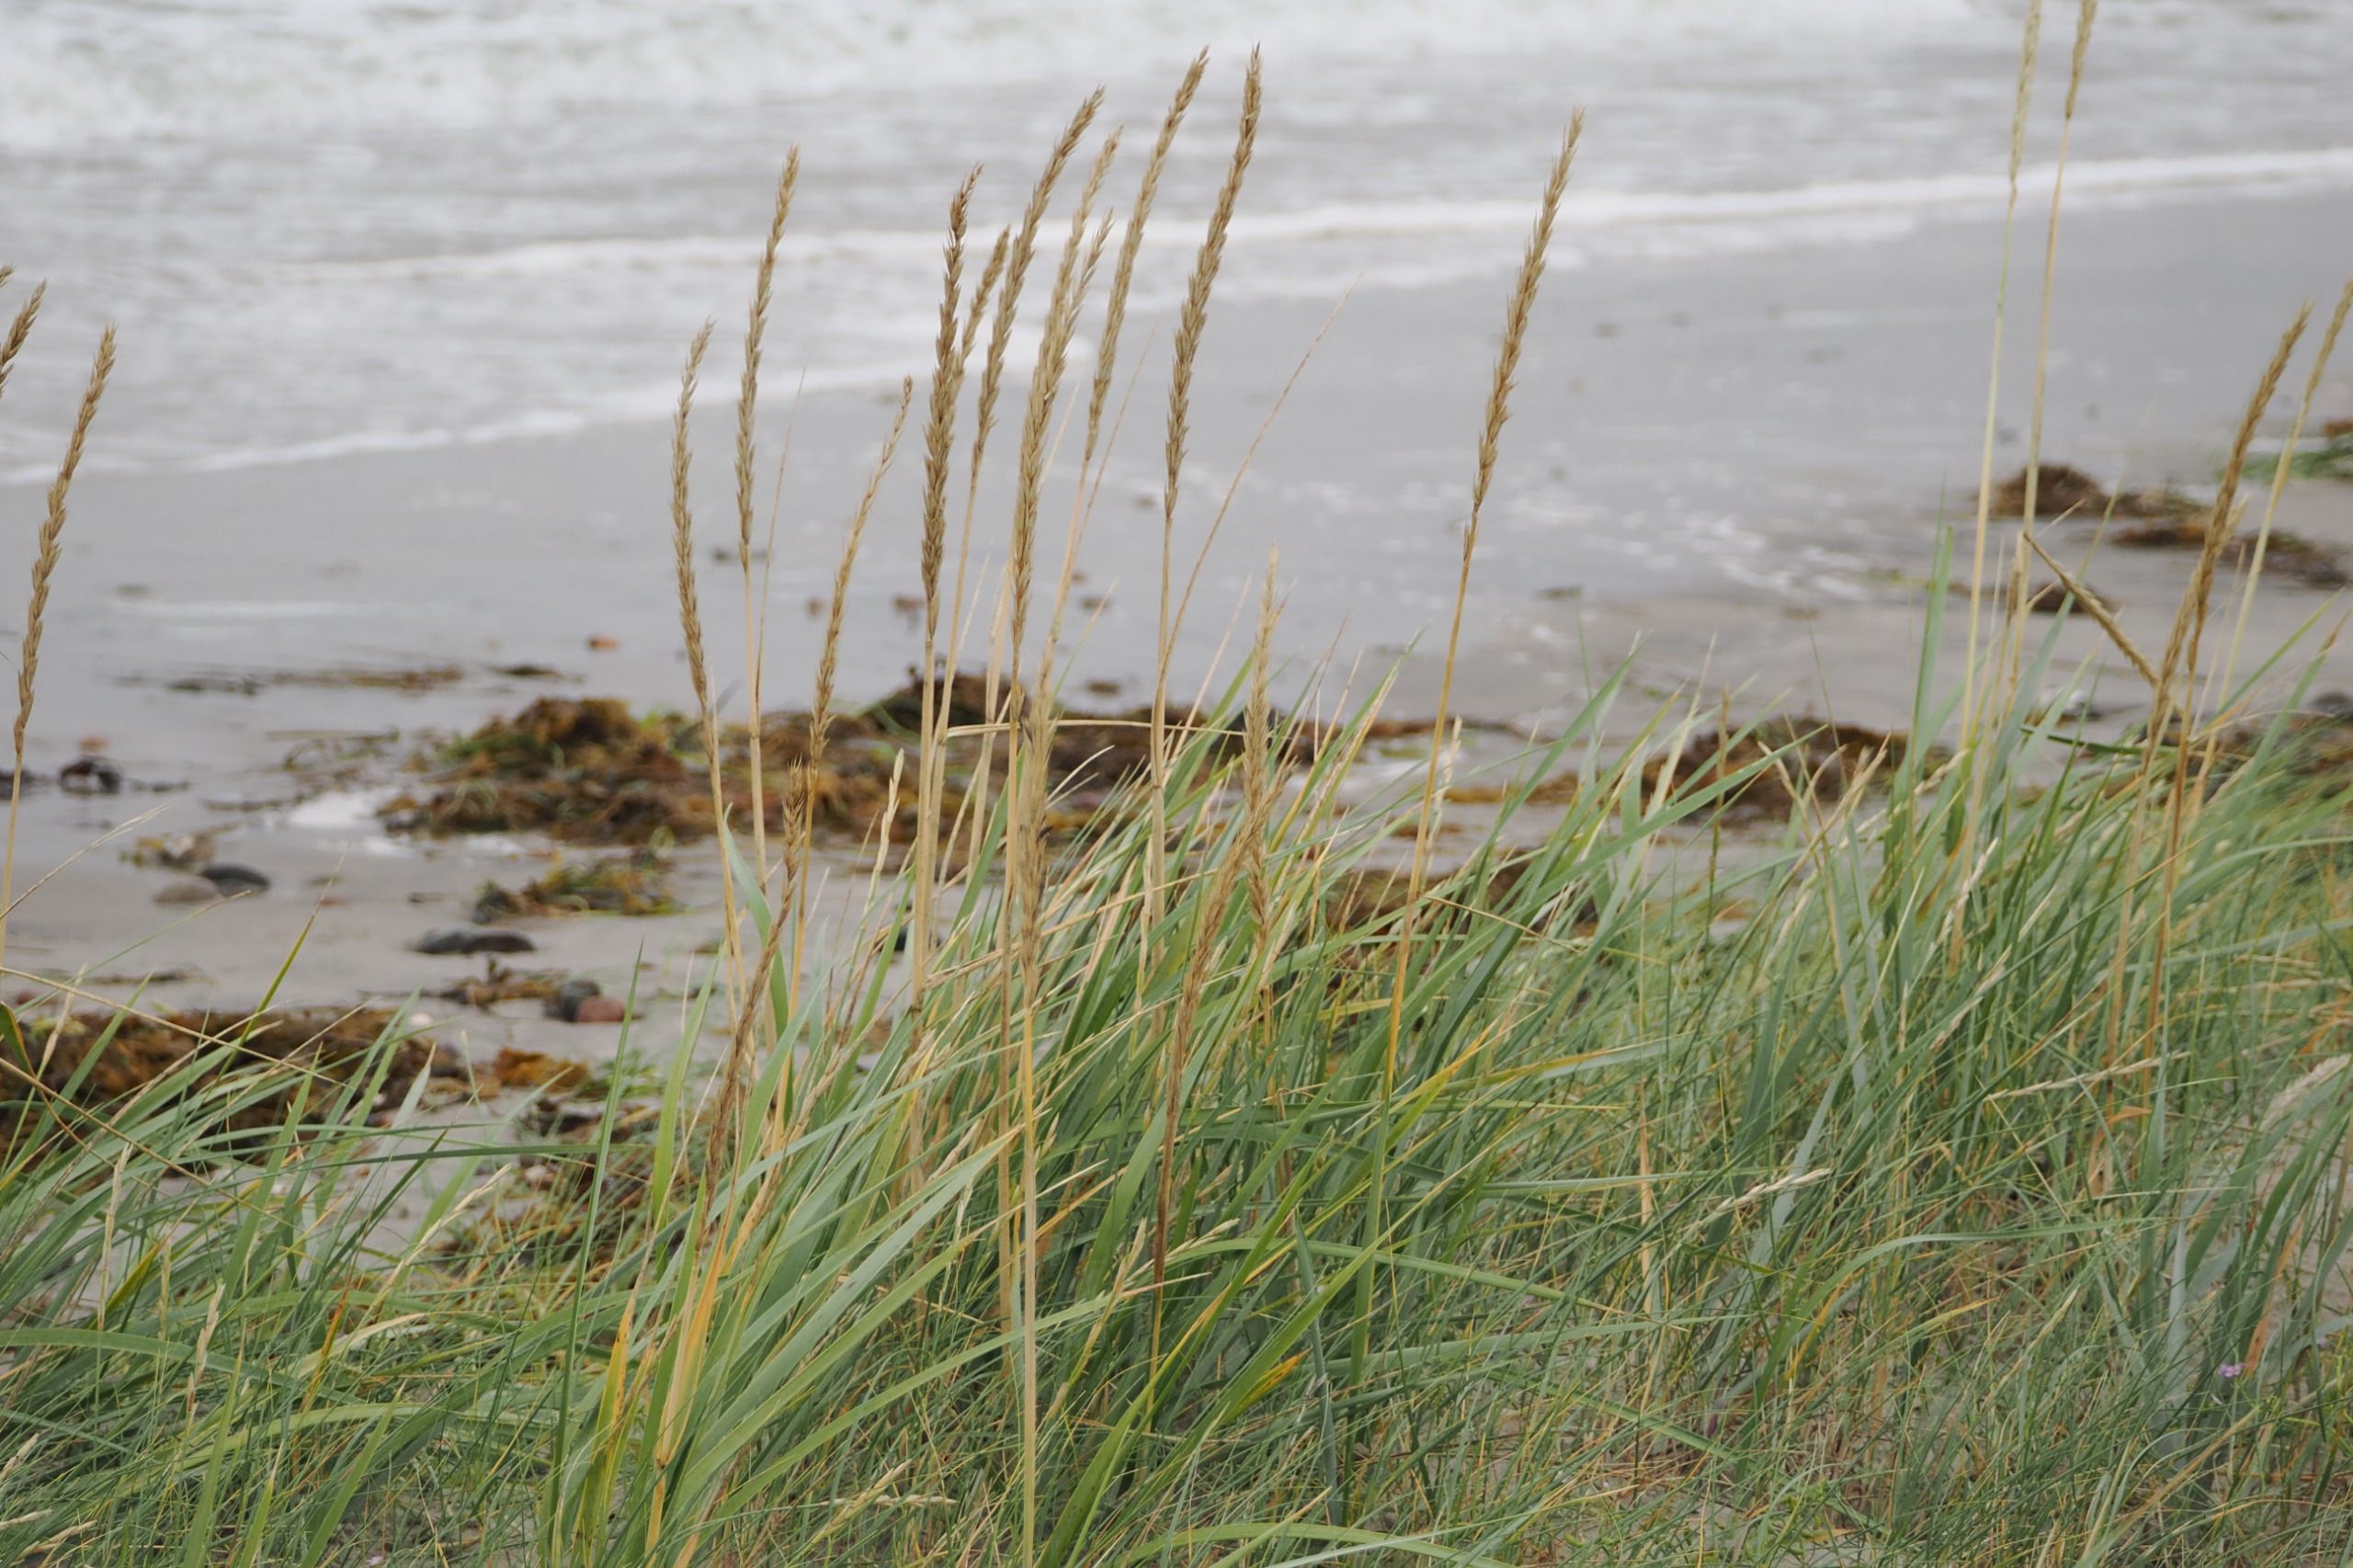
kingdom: Plantae
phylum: Tracheophyta
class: Liliopsida
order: Poales
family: Poaceae
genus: Leymus
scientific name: Leymus arenarius
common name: Marehalm
